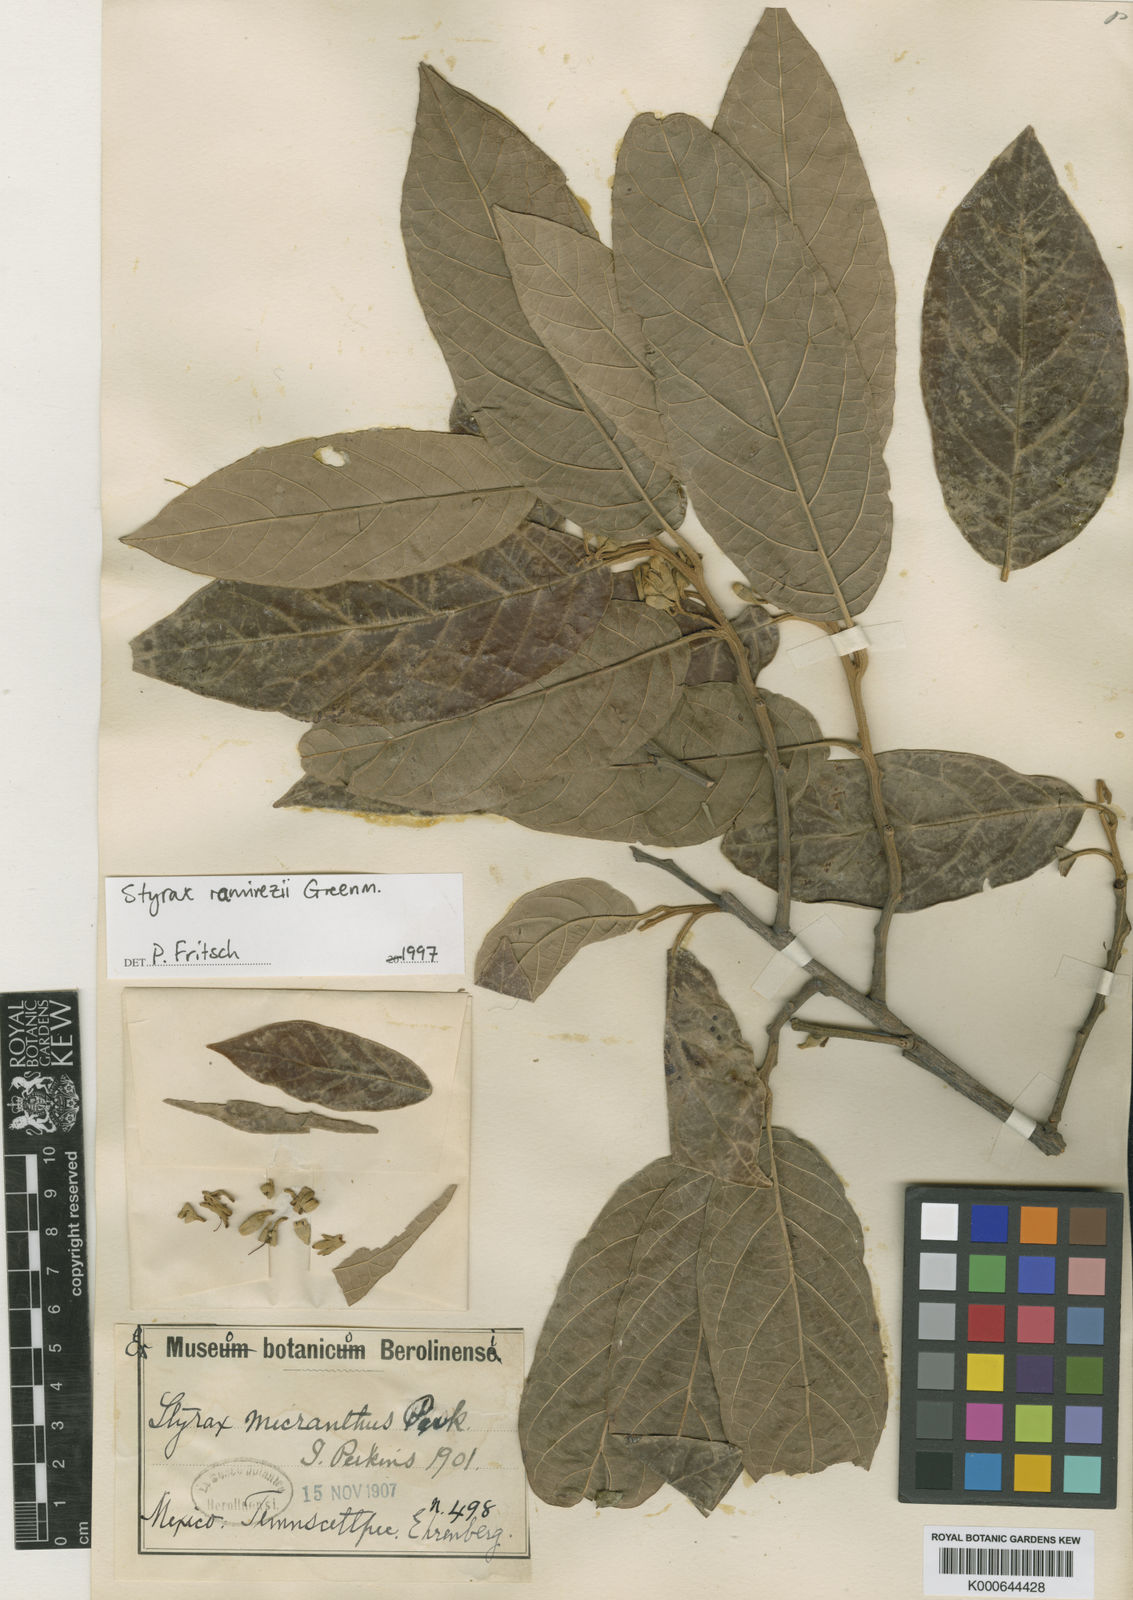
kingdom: Plantae
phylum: Tracheophyta
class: Magnoliopsida
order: Ericales
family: Styracaceae
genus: Styrax
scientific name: Styrax argenteus
